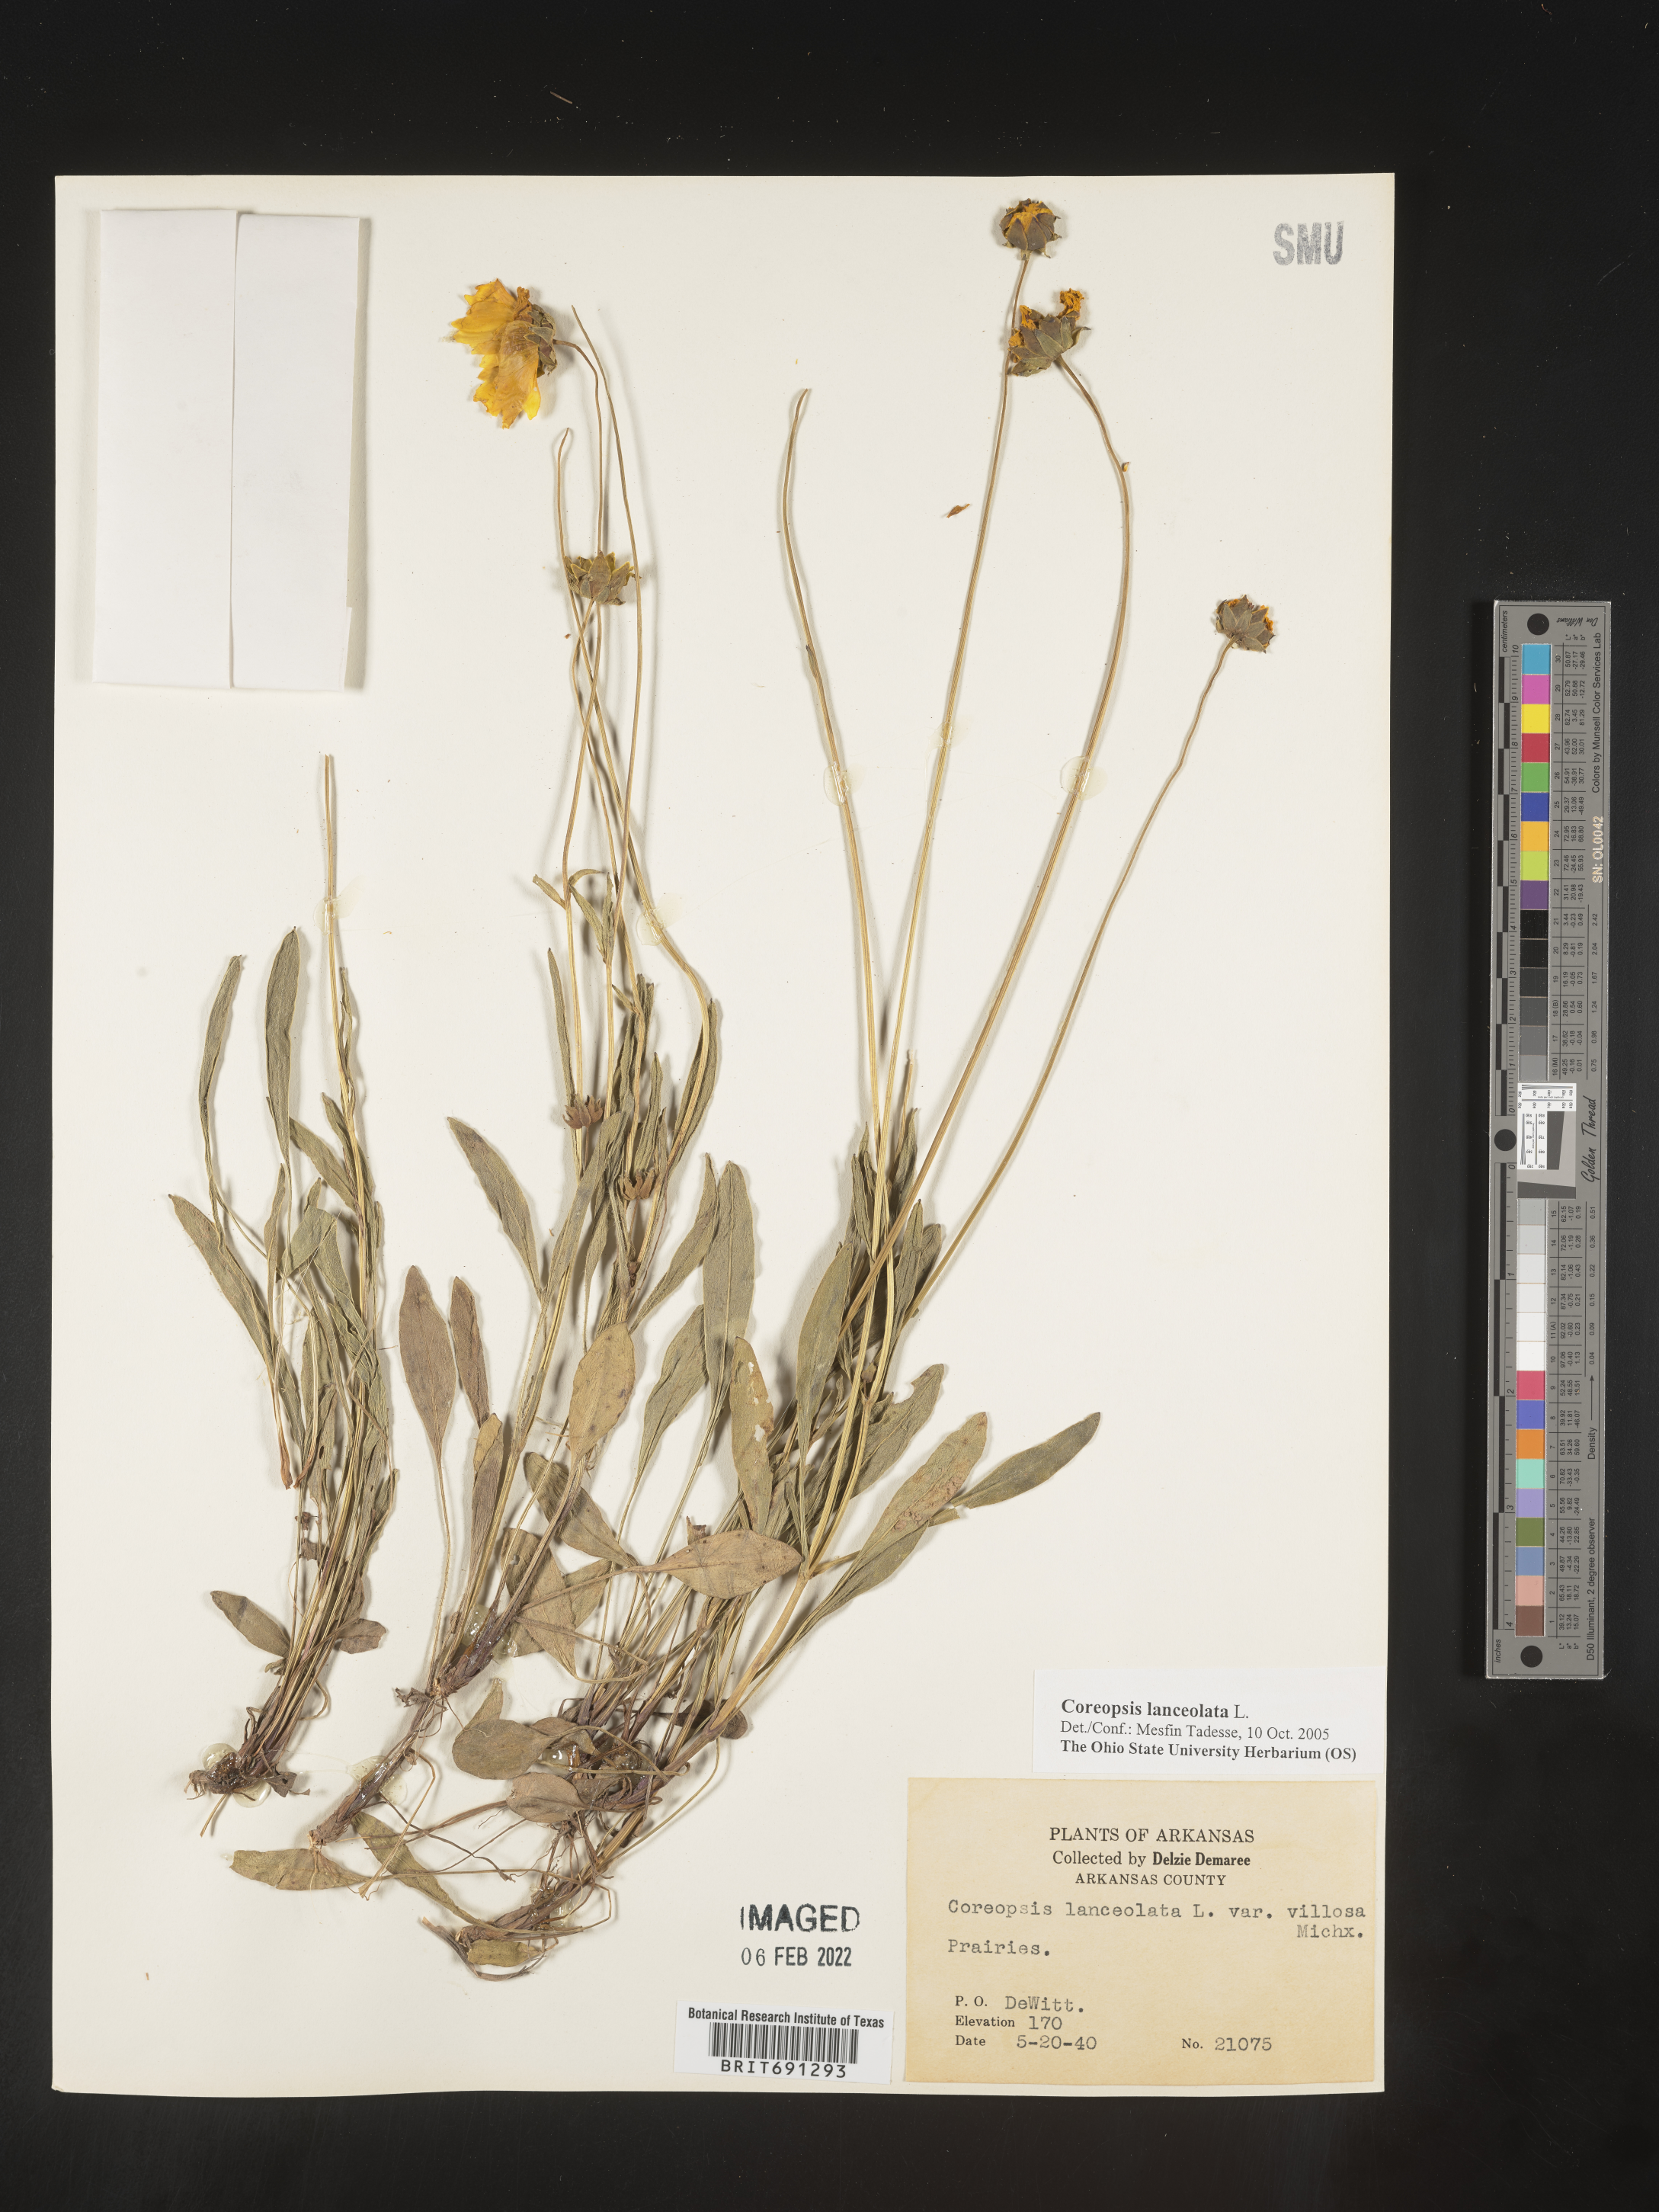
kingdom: Plantae
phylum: Tracheophyta
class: Magnoliopsida
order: Asterales
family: Asteraceae
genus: Coreopsis
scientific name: Coreopsis lanceolata
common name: Garden coreopsis
